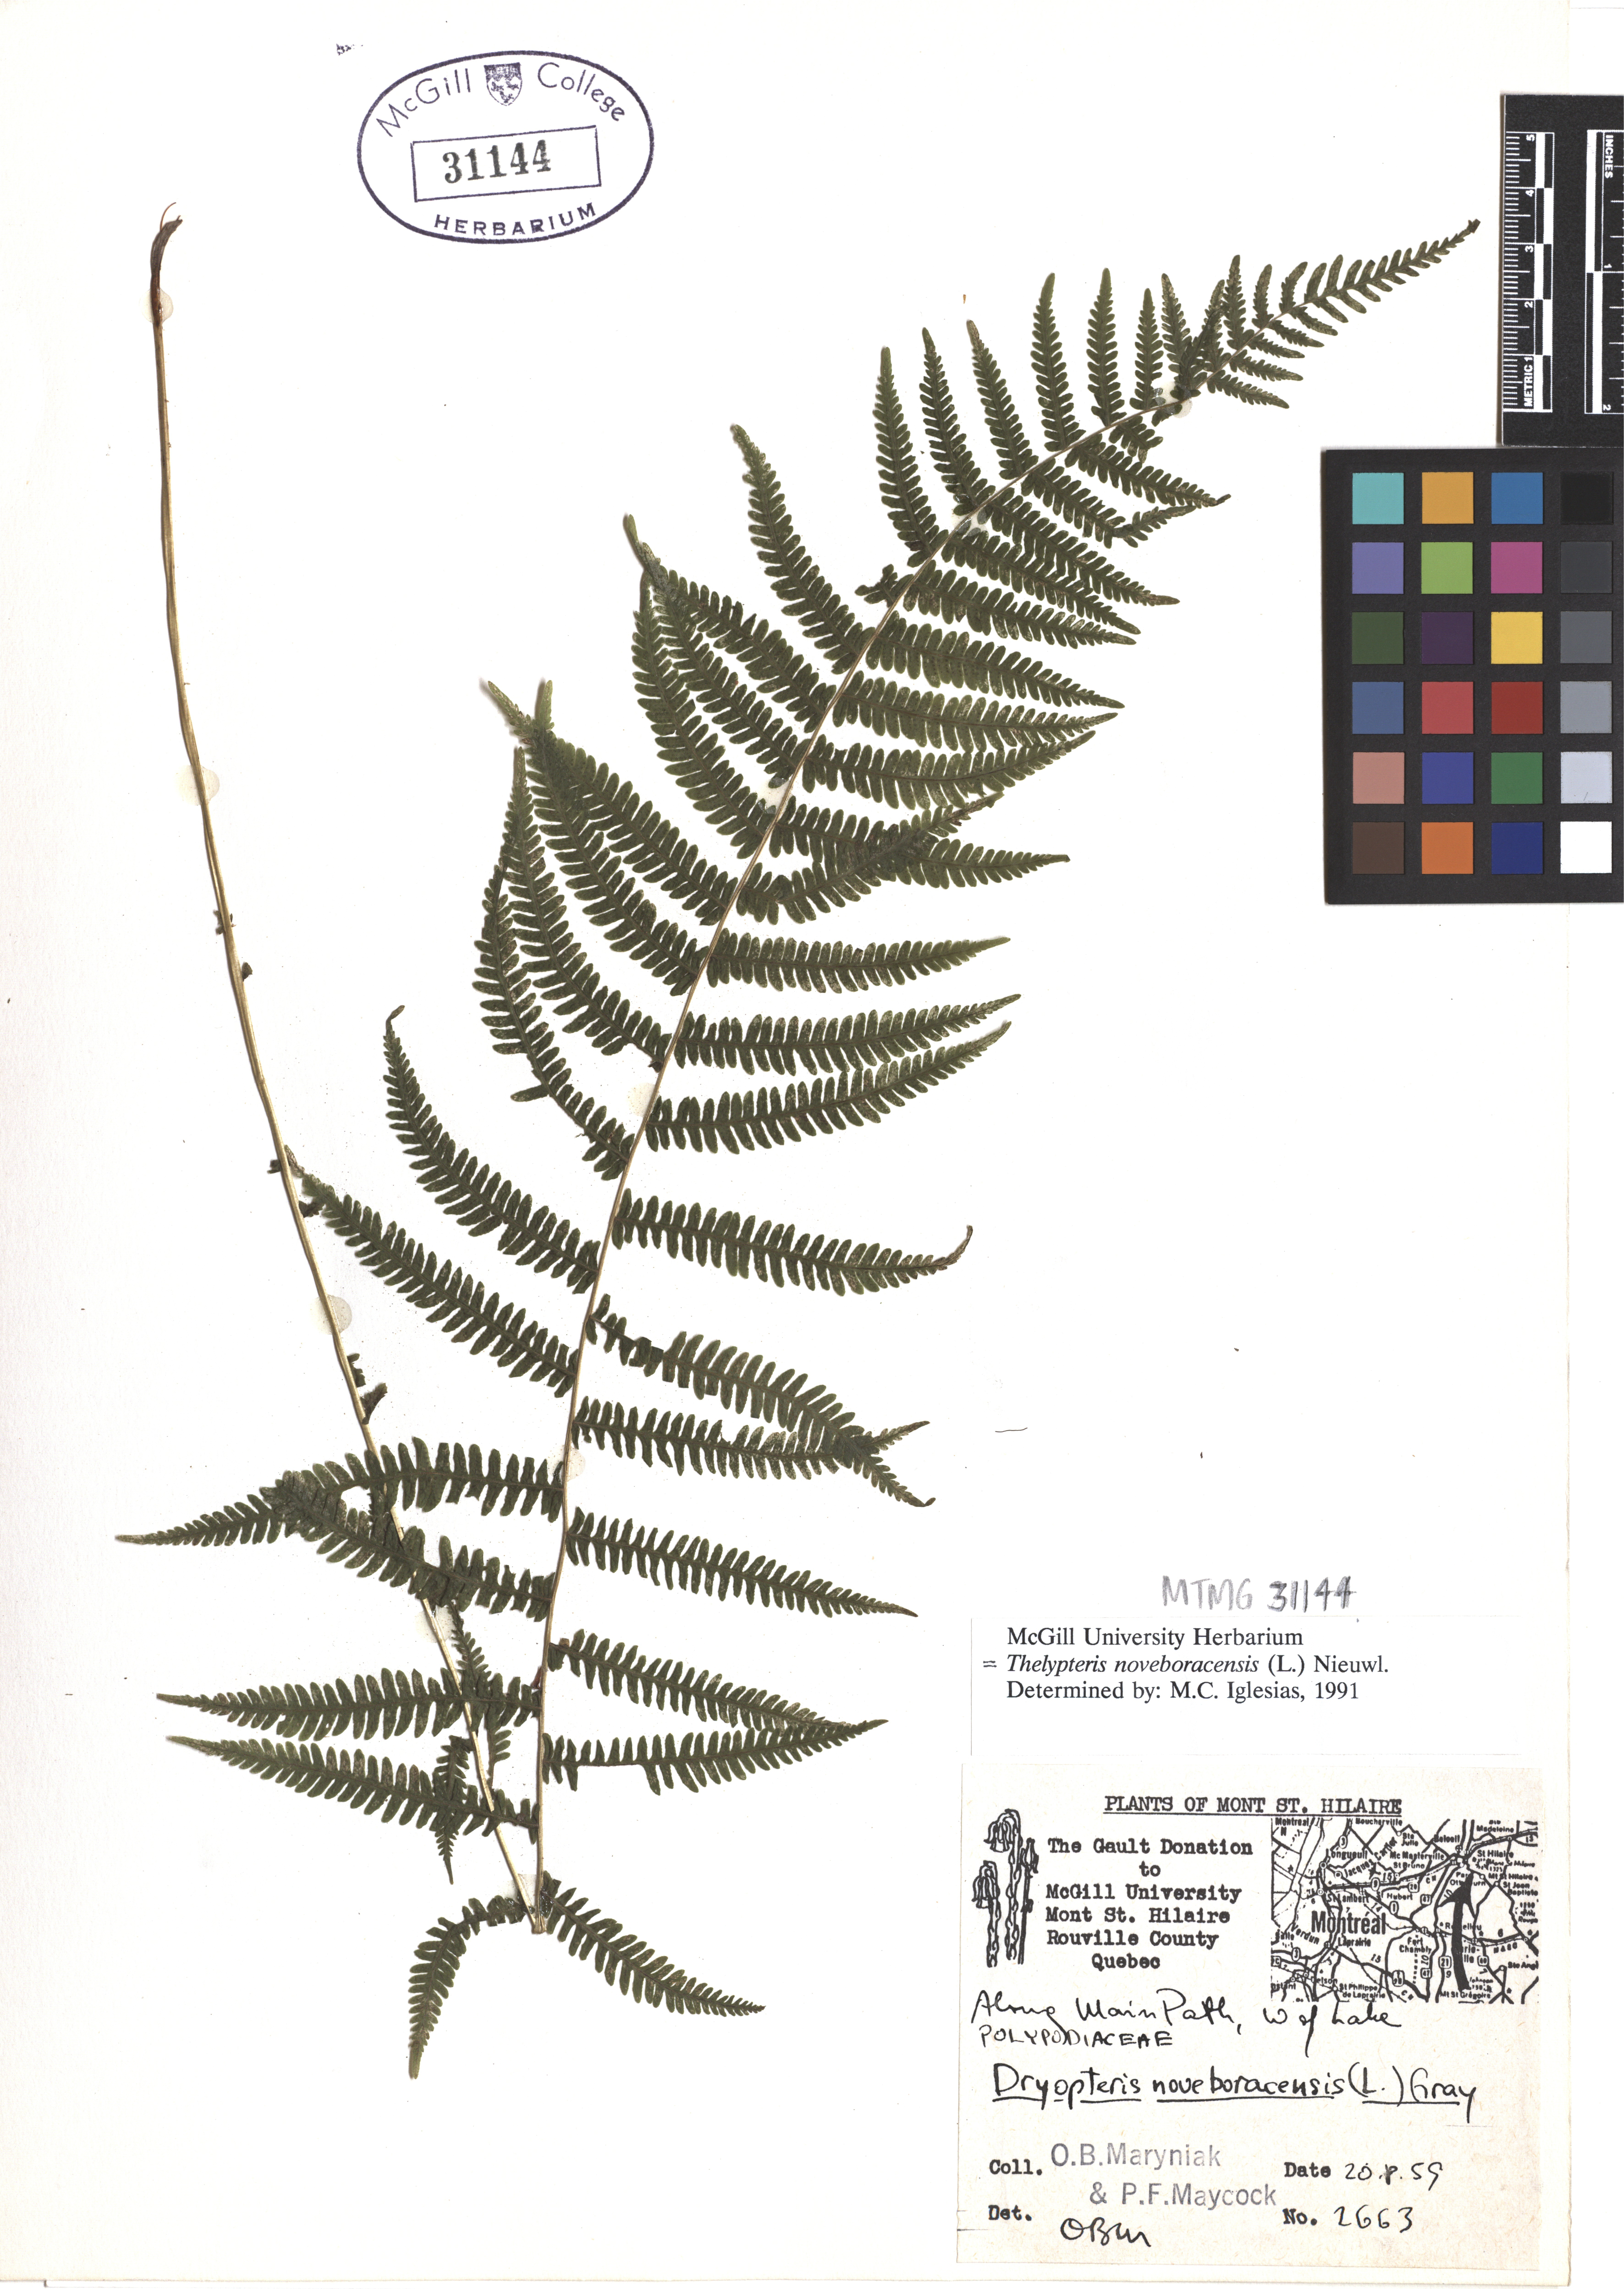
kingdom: Plantae
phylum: Tracheophyta
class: Polypodiopsida
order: Polypodiales
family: Thelypteridaceae
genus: Amauropelta
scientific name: Amauropelta noveboracensis
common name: New york fern
